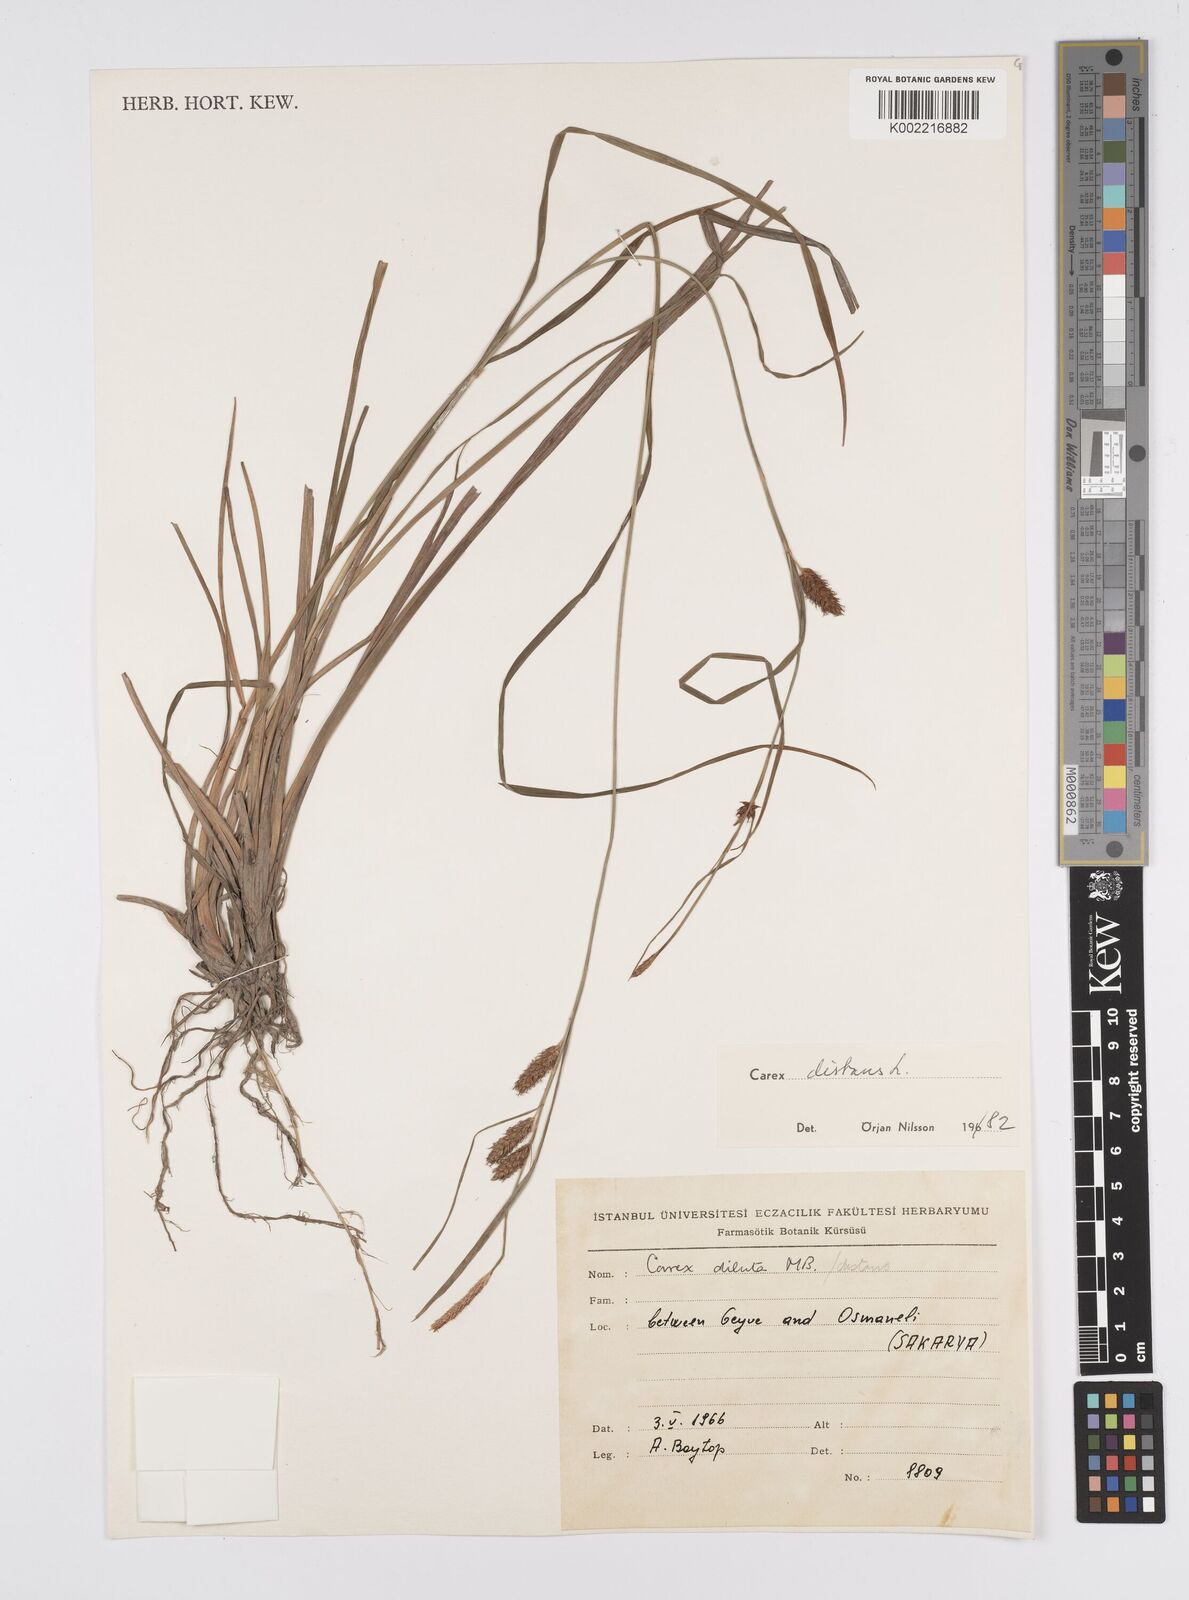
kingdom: Plantae
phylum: Tracheophyta
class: Liliopsida
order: Poales
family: Cyperaceae
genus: Carex
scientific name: Carex distans
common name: Distant sedge
